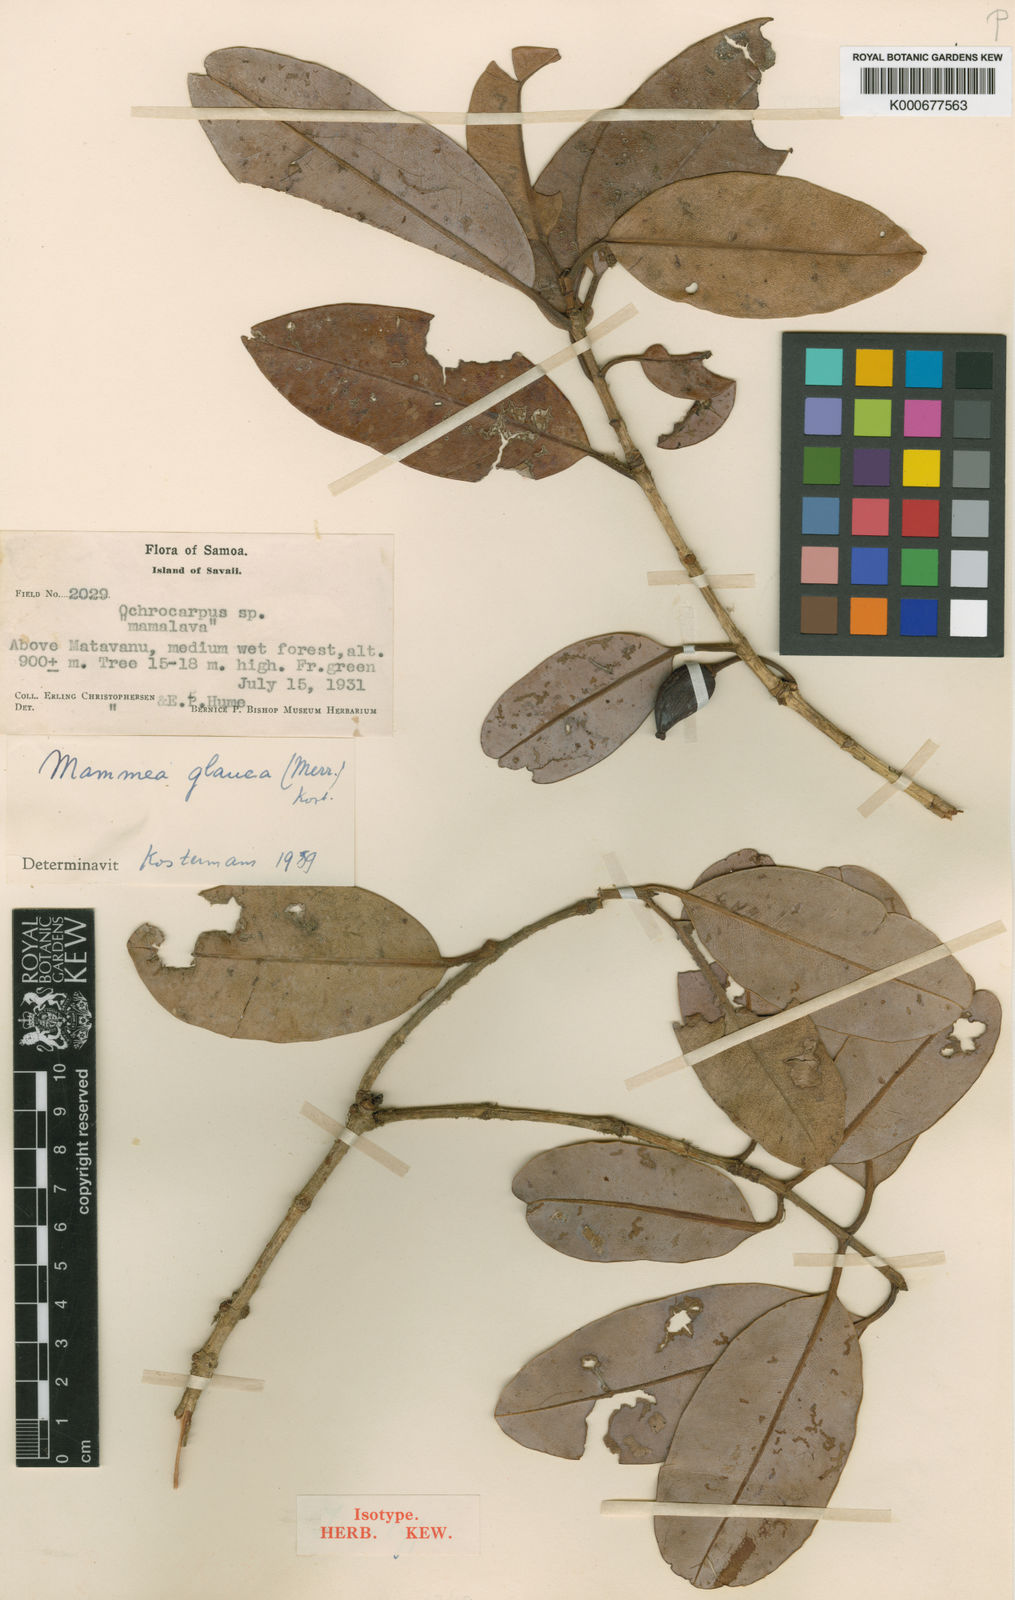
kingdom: Plantae
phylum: Tracheophyta
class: Magnoliopsida
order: Malpighiales
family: Calophyllaceae
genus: Mammea
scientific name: Mammea glauca
